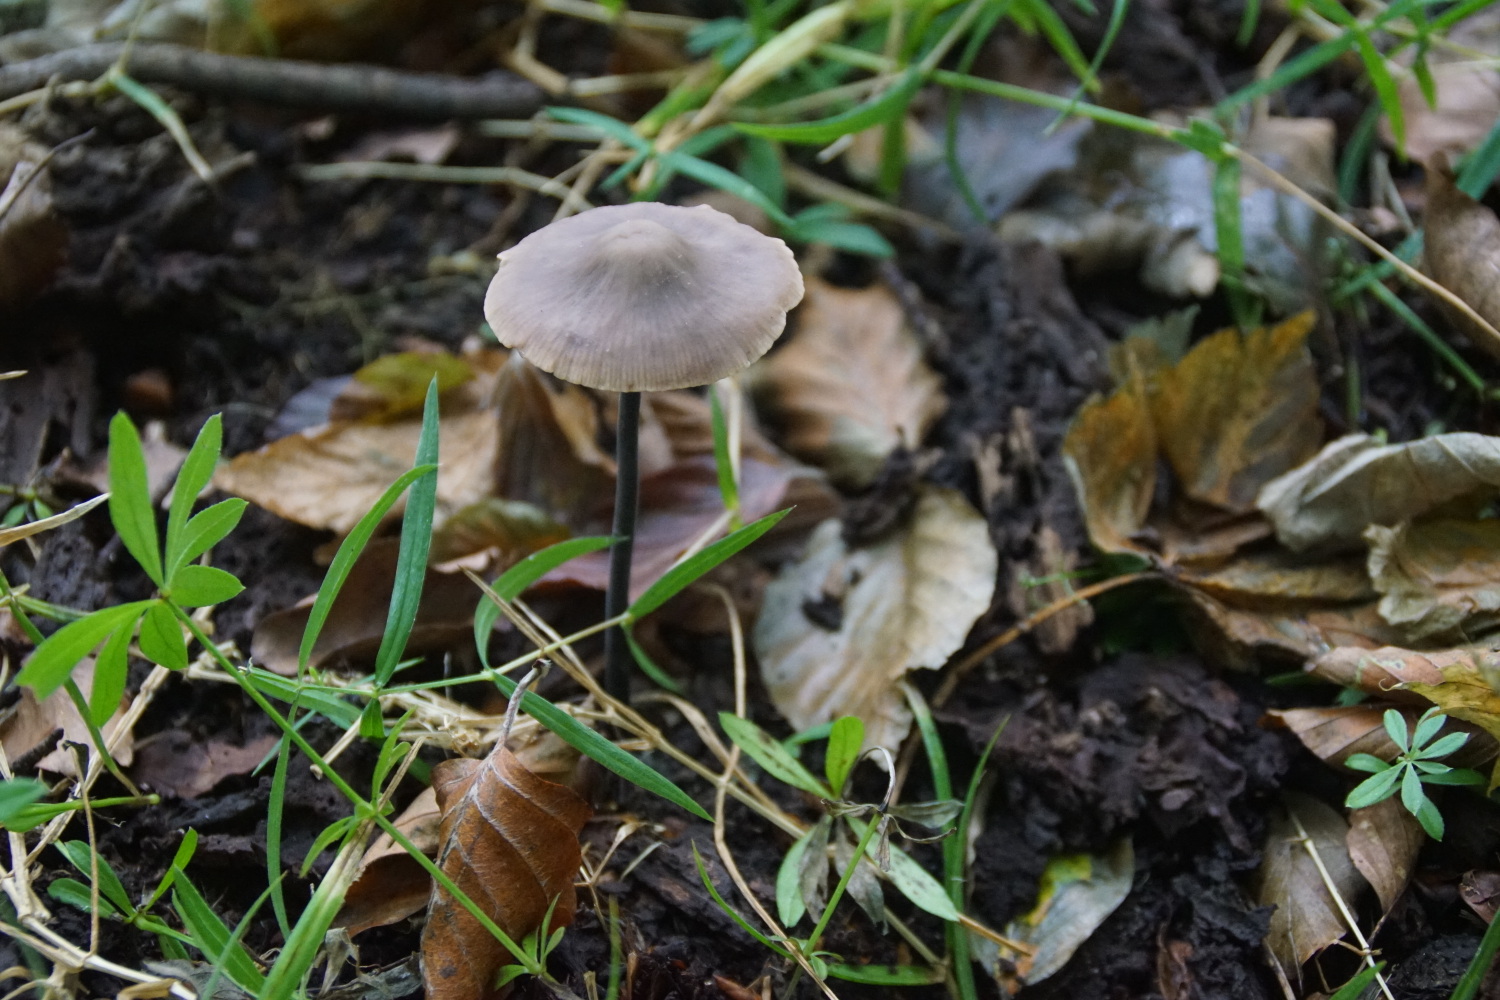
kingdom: Fungi
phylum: Basidiomycota
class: Agaricomycetes
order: Agaricales
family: Omphalotaceae
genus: Mycetinis
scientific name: Mycetinis alliaceus
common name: stor løghat
